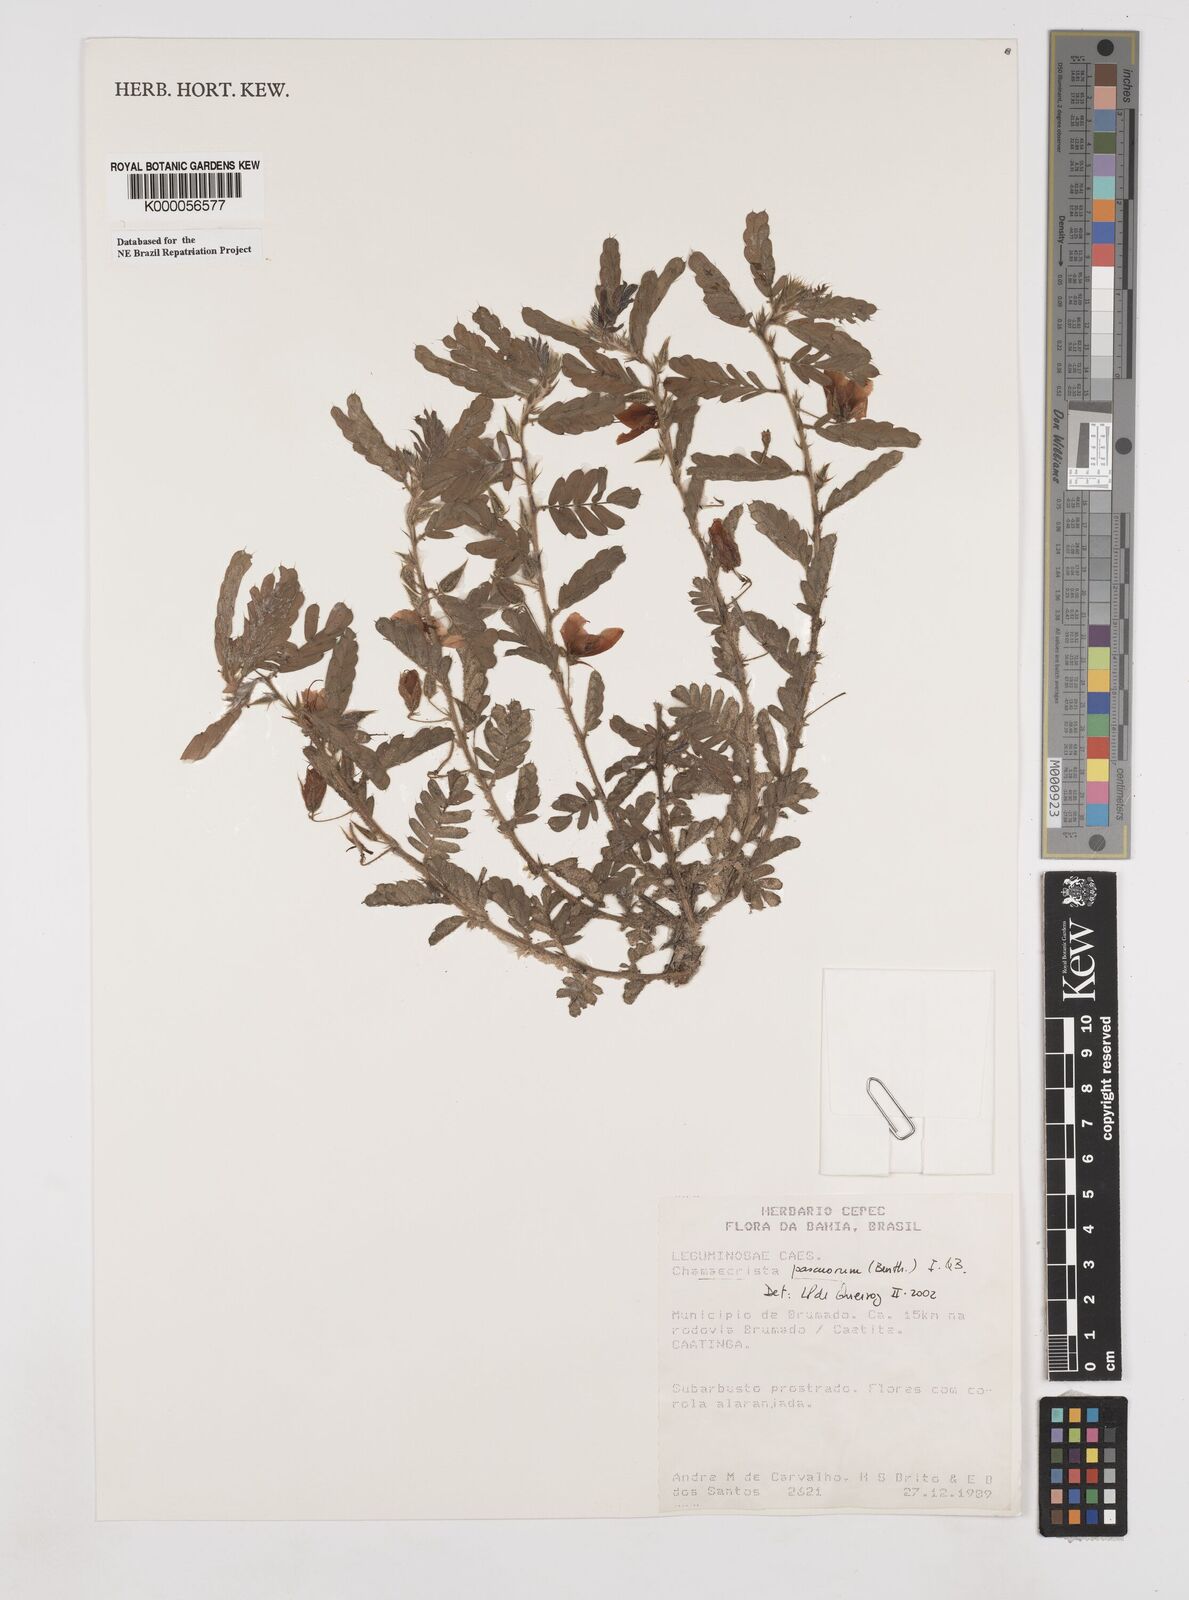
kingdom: Plantae
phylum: Tracheophyta
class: Magnoliopsida
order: Fabales
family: Fabaceae
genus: Chamaecrista
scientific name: Chamaecrista pascuorum
